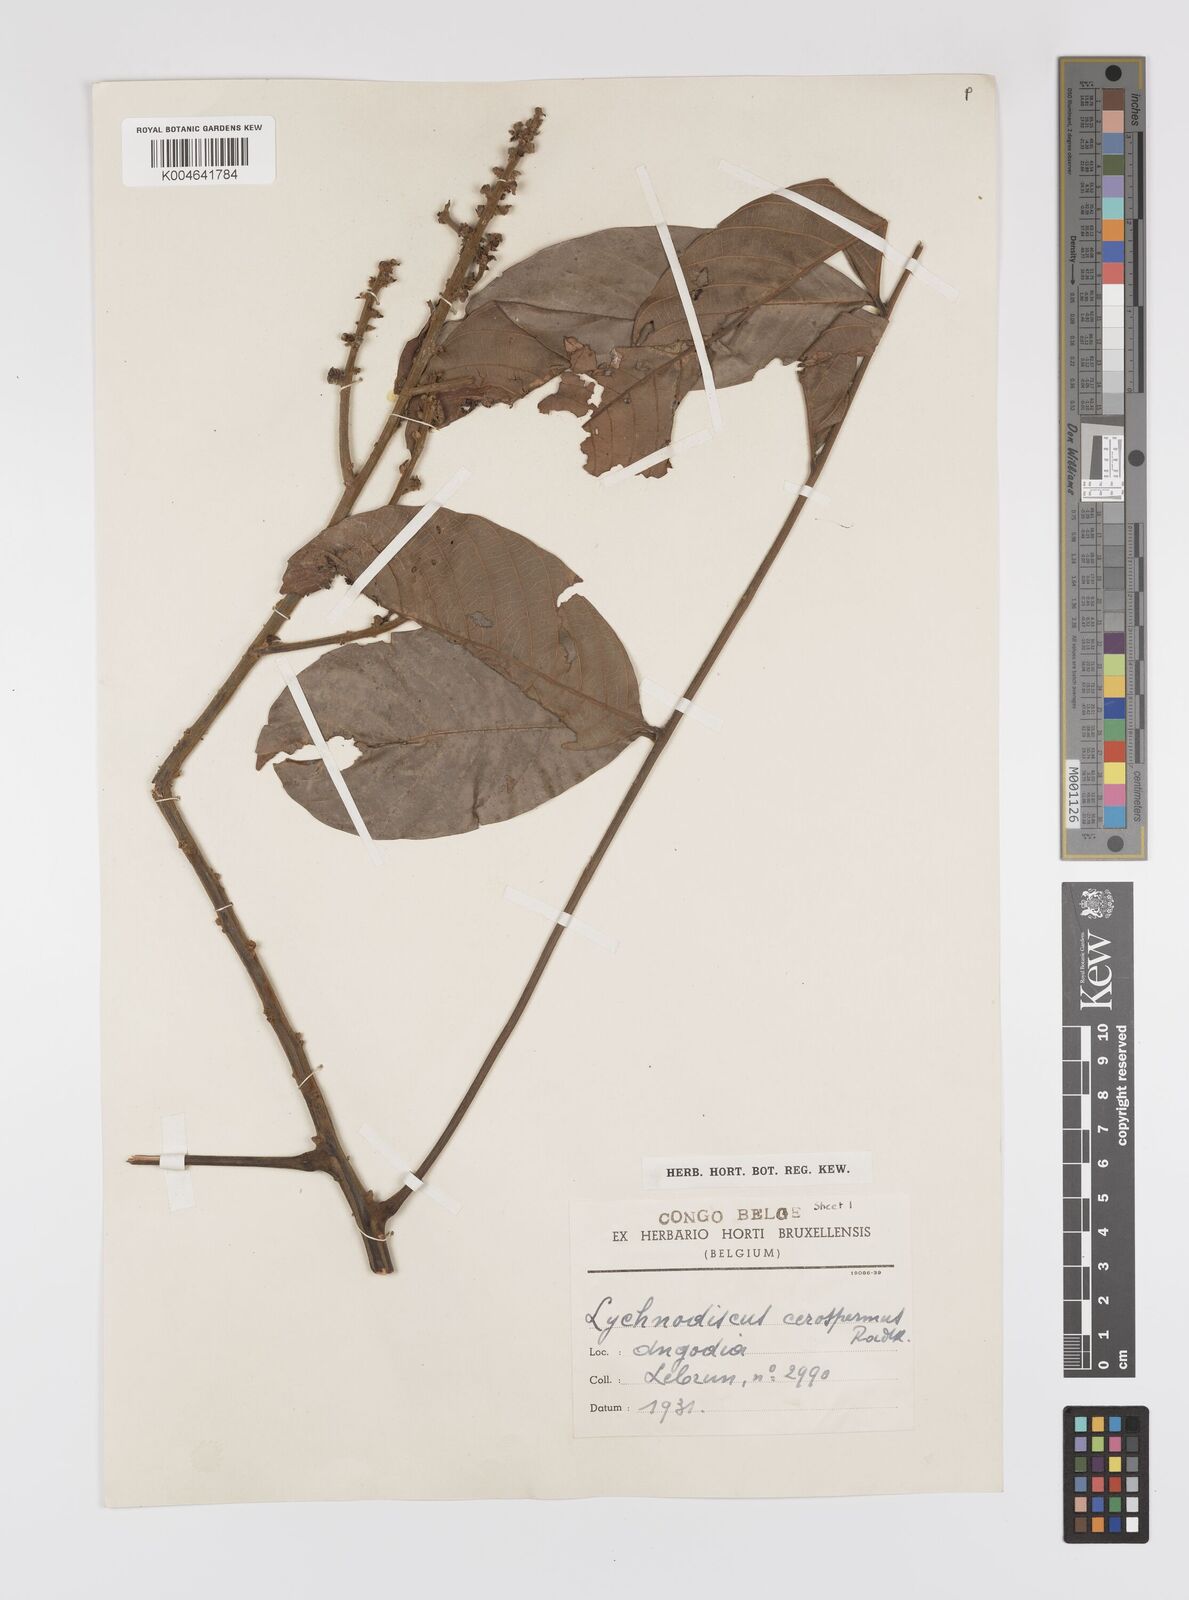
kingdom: Plantae
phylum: Tracheophyta
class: Magnoliopsida
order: Sapindales
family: Sapindaceae
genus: Lychnodiscus
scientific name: Lychnodiscus cerospermus
